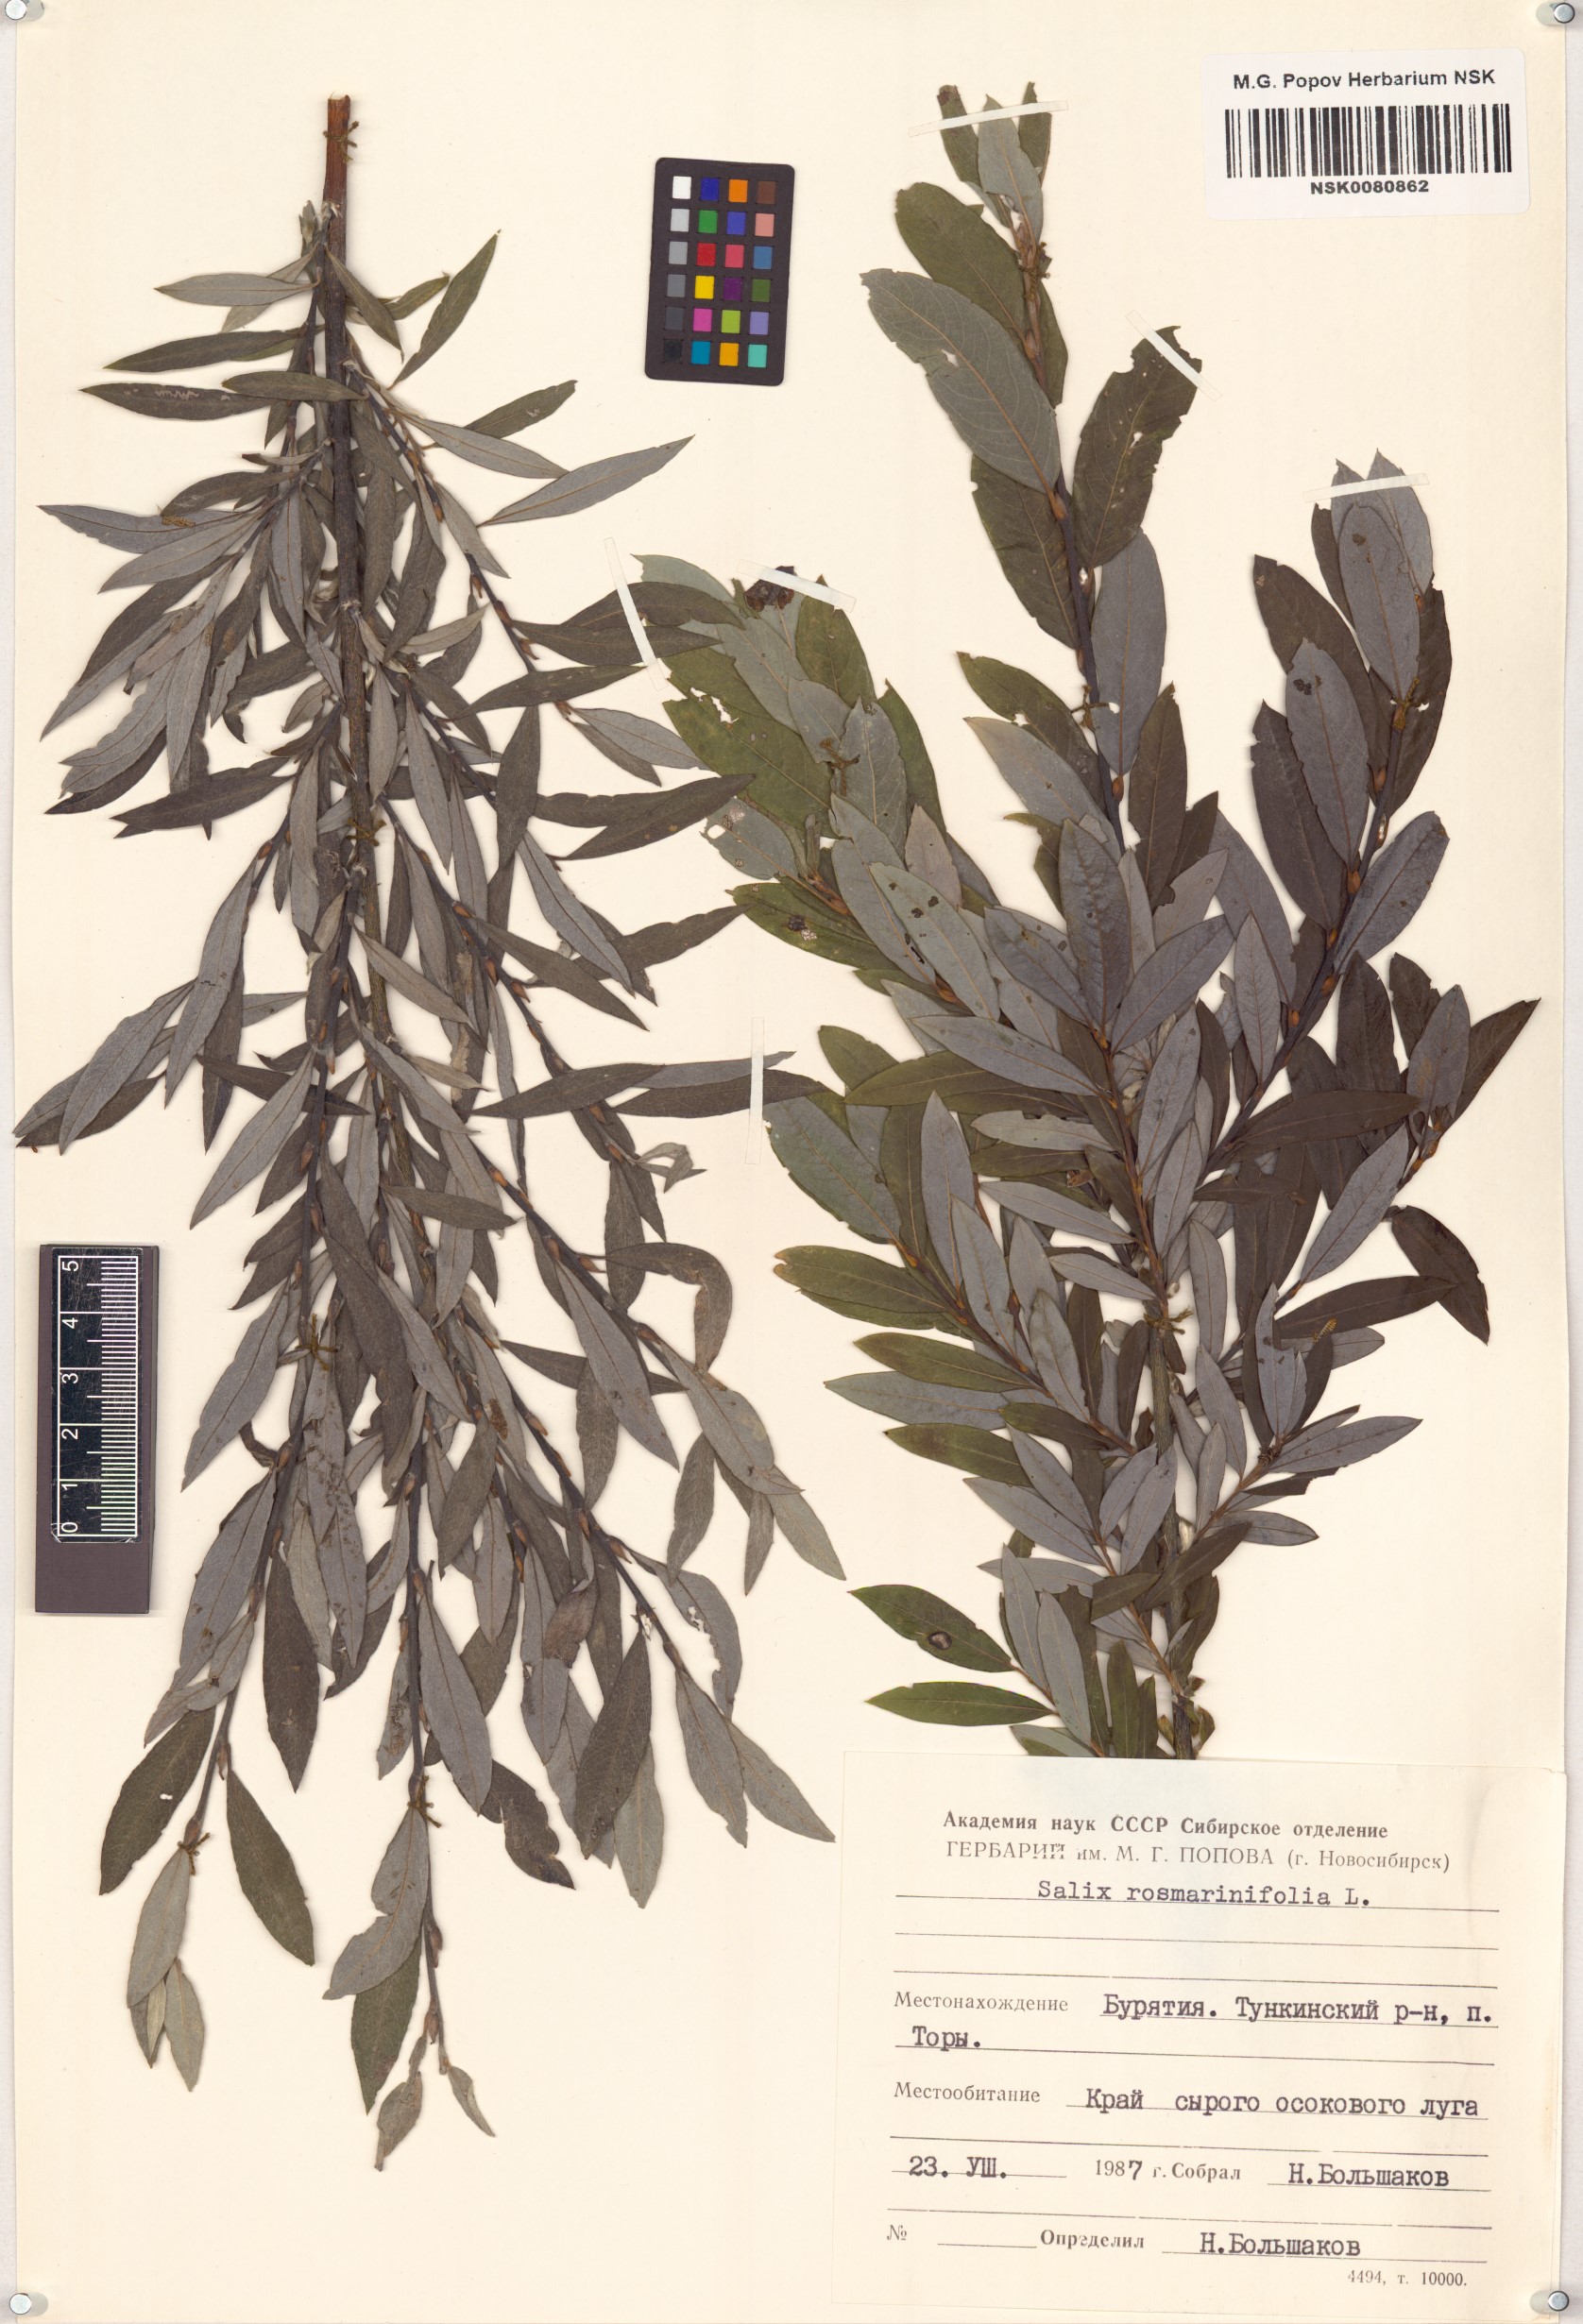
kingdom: Plantae
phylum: Tracheophyta
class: Magnoliopsida
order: Malpighiales
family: Salicaceae
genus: Salix
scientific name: Salix rosmarinifolia
